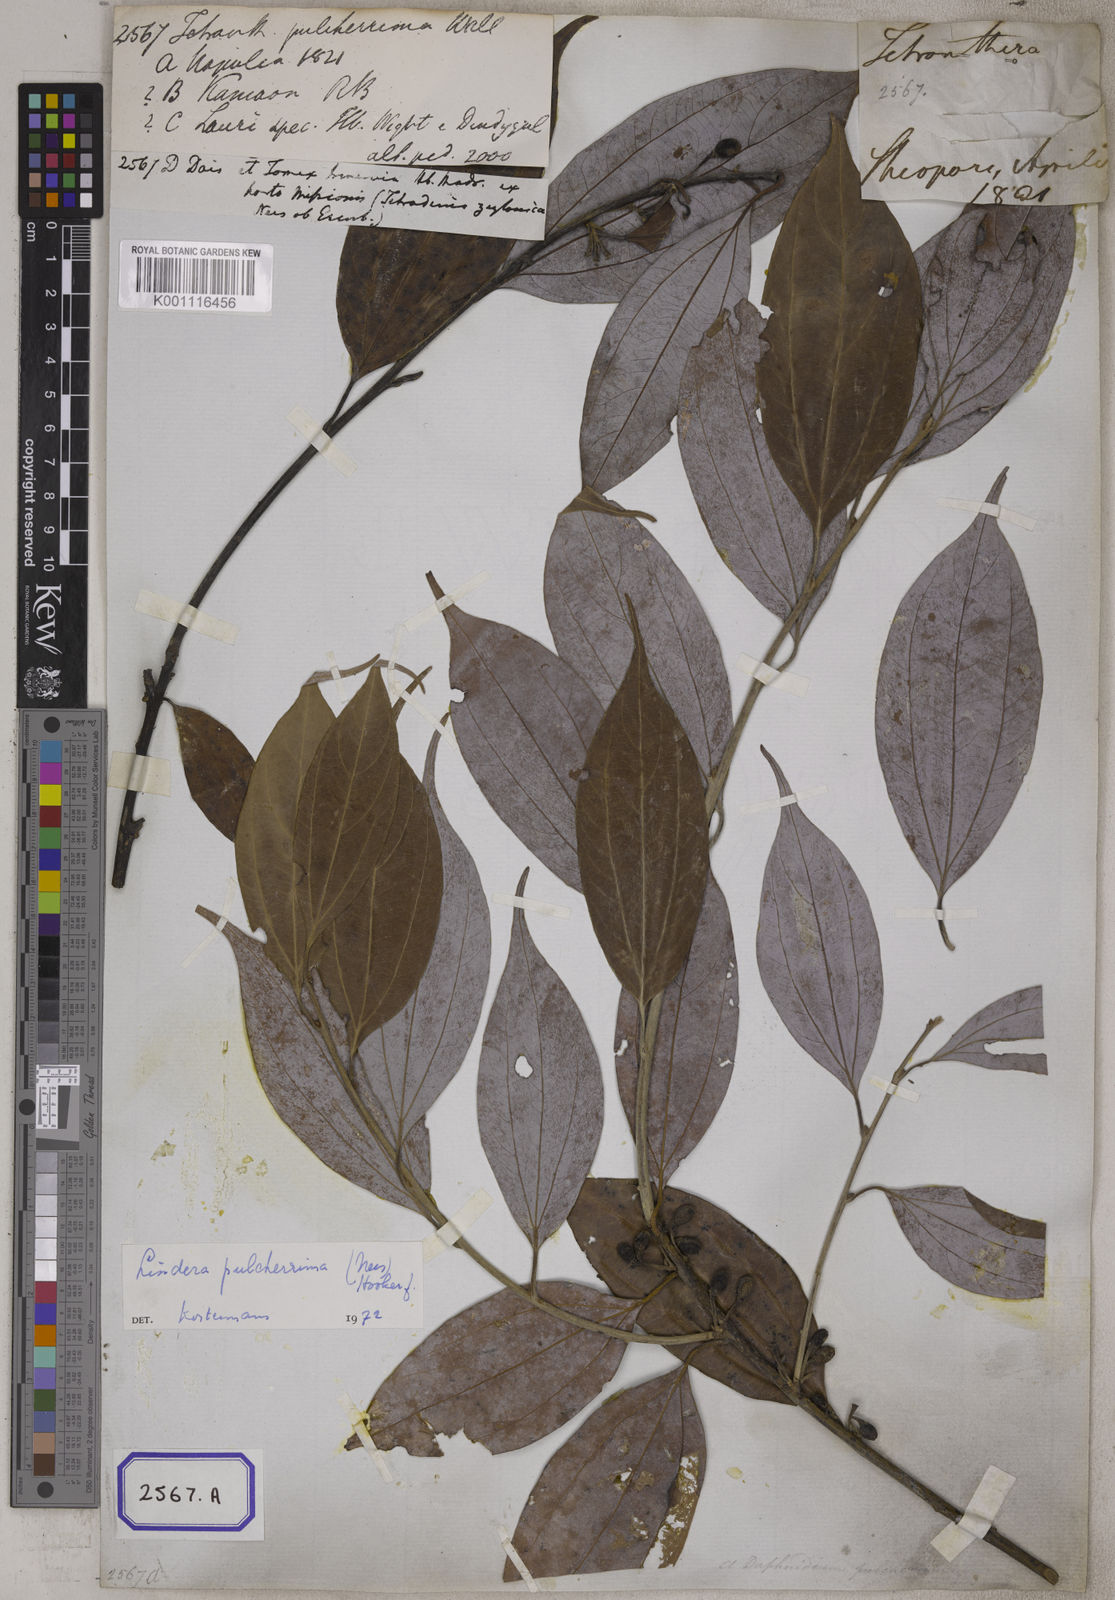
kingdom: Plantae
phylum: Tracheophyta
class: Magnoliopsida
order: Laurales
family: Lauraceae
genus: Lindera
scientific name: Lindera pulcherrima
